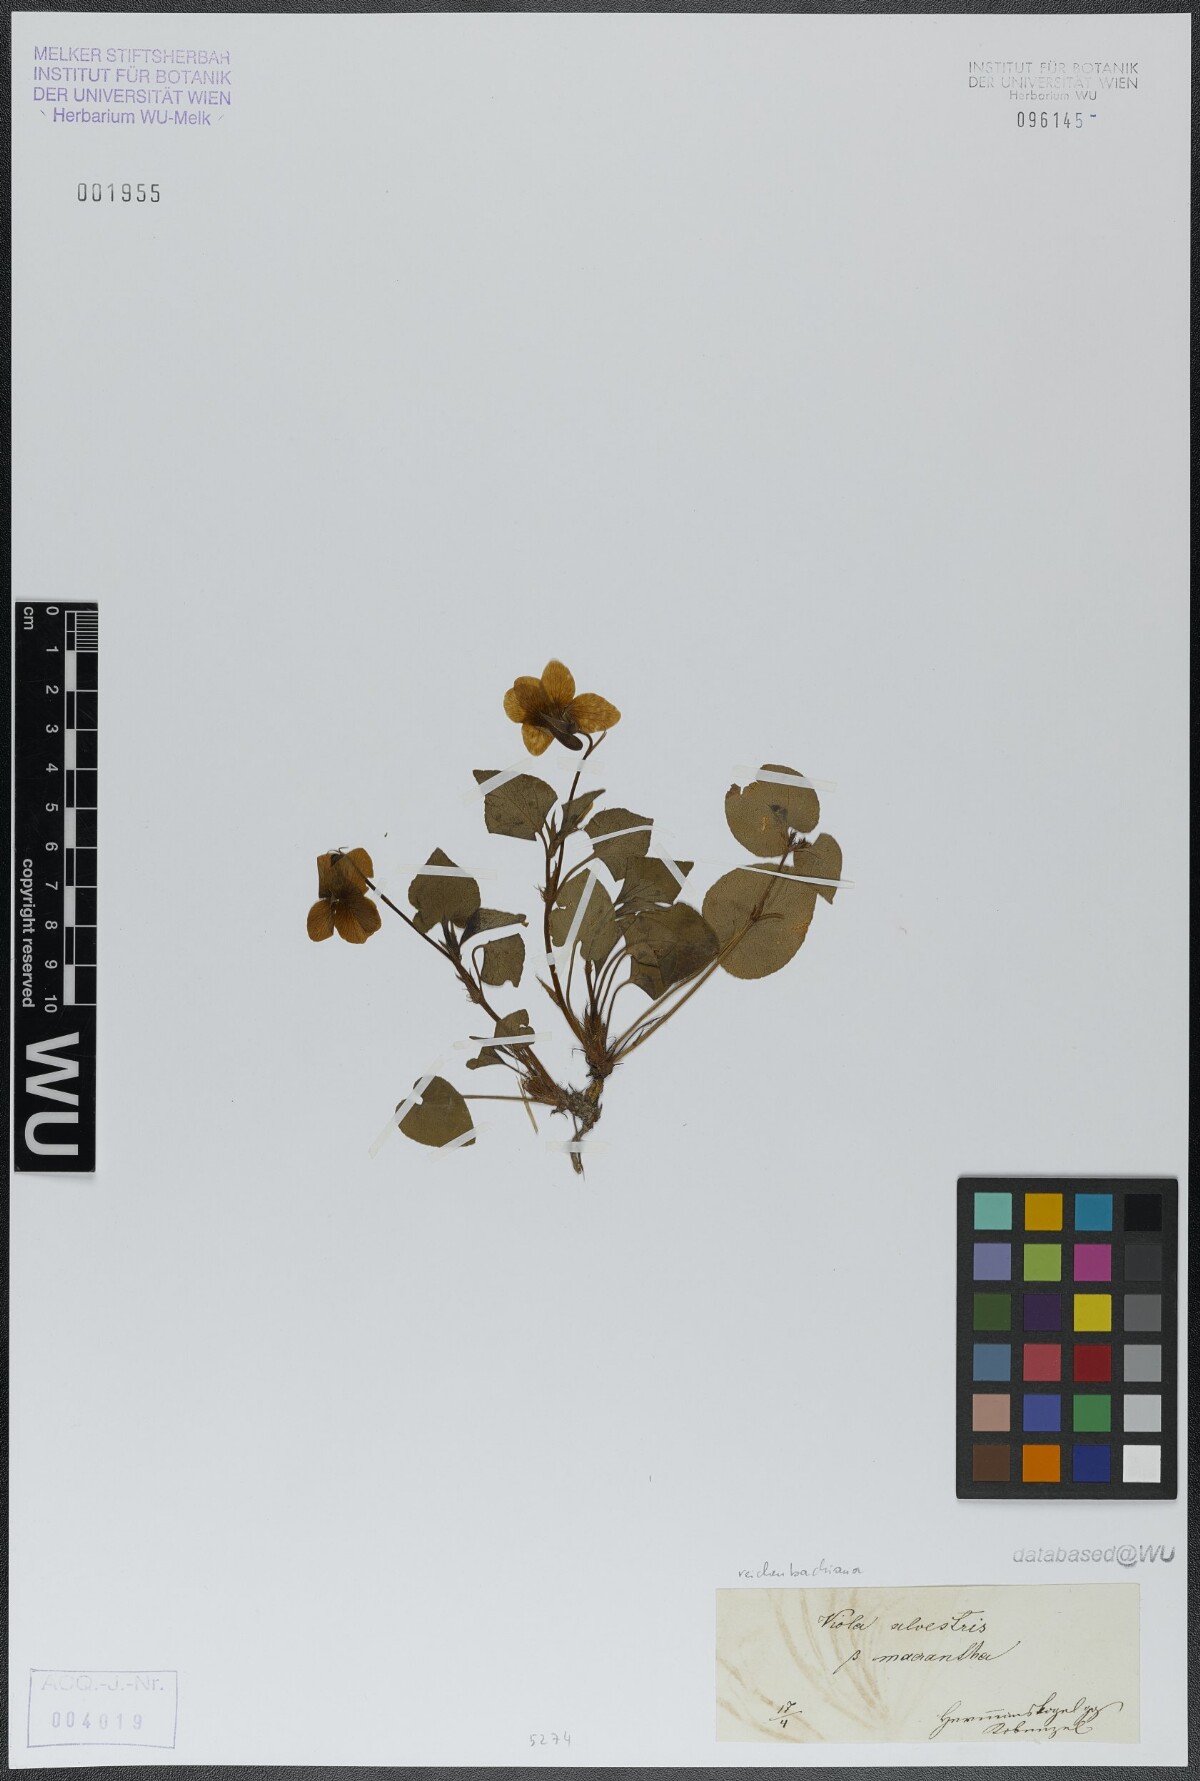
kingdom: Plantae
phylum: Tracheophyta
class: Magnoliopsida
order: Malpighiales
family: Violaceae
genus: Viola
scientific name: Viola reichenbachiana
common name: Early dog-violet
